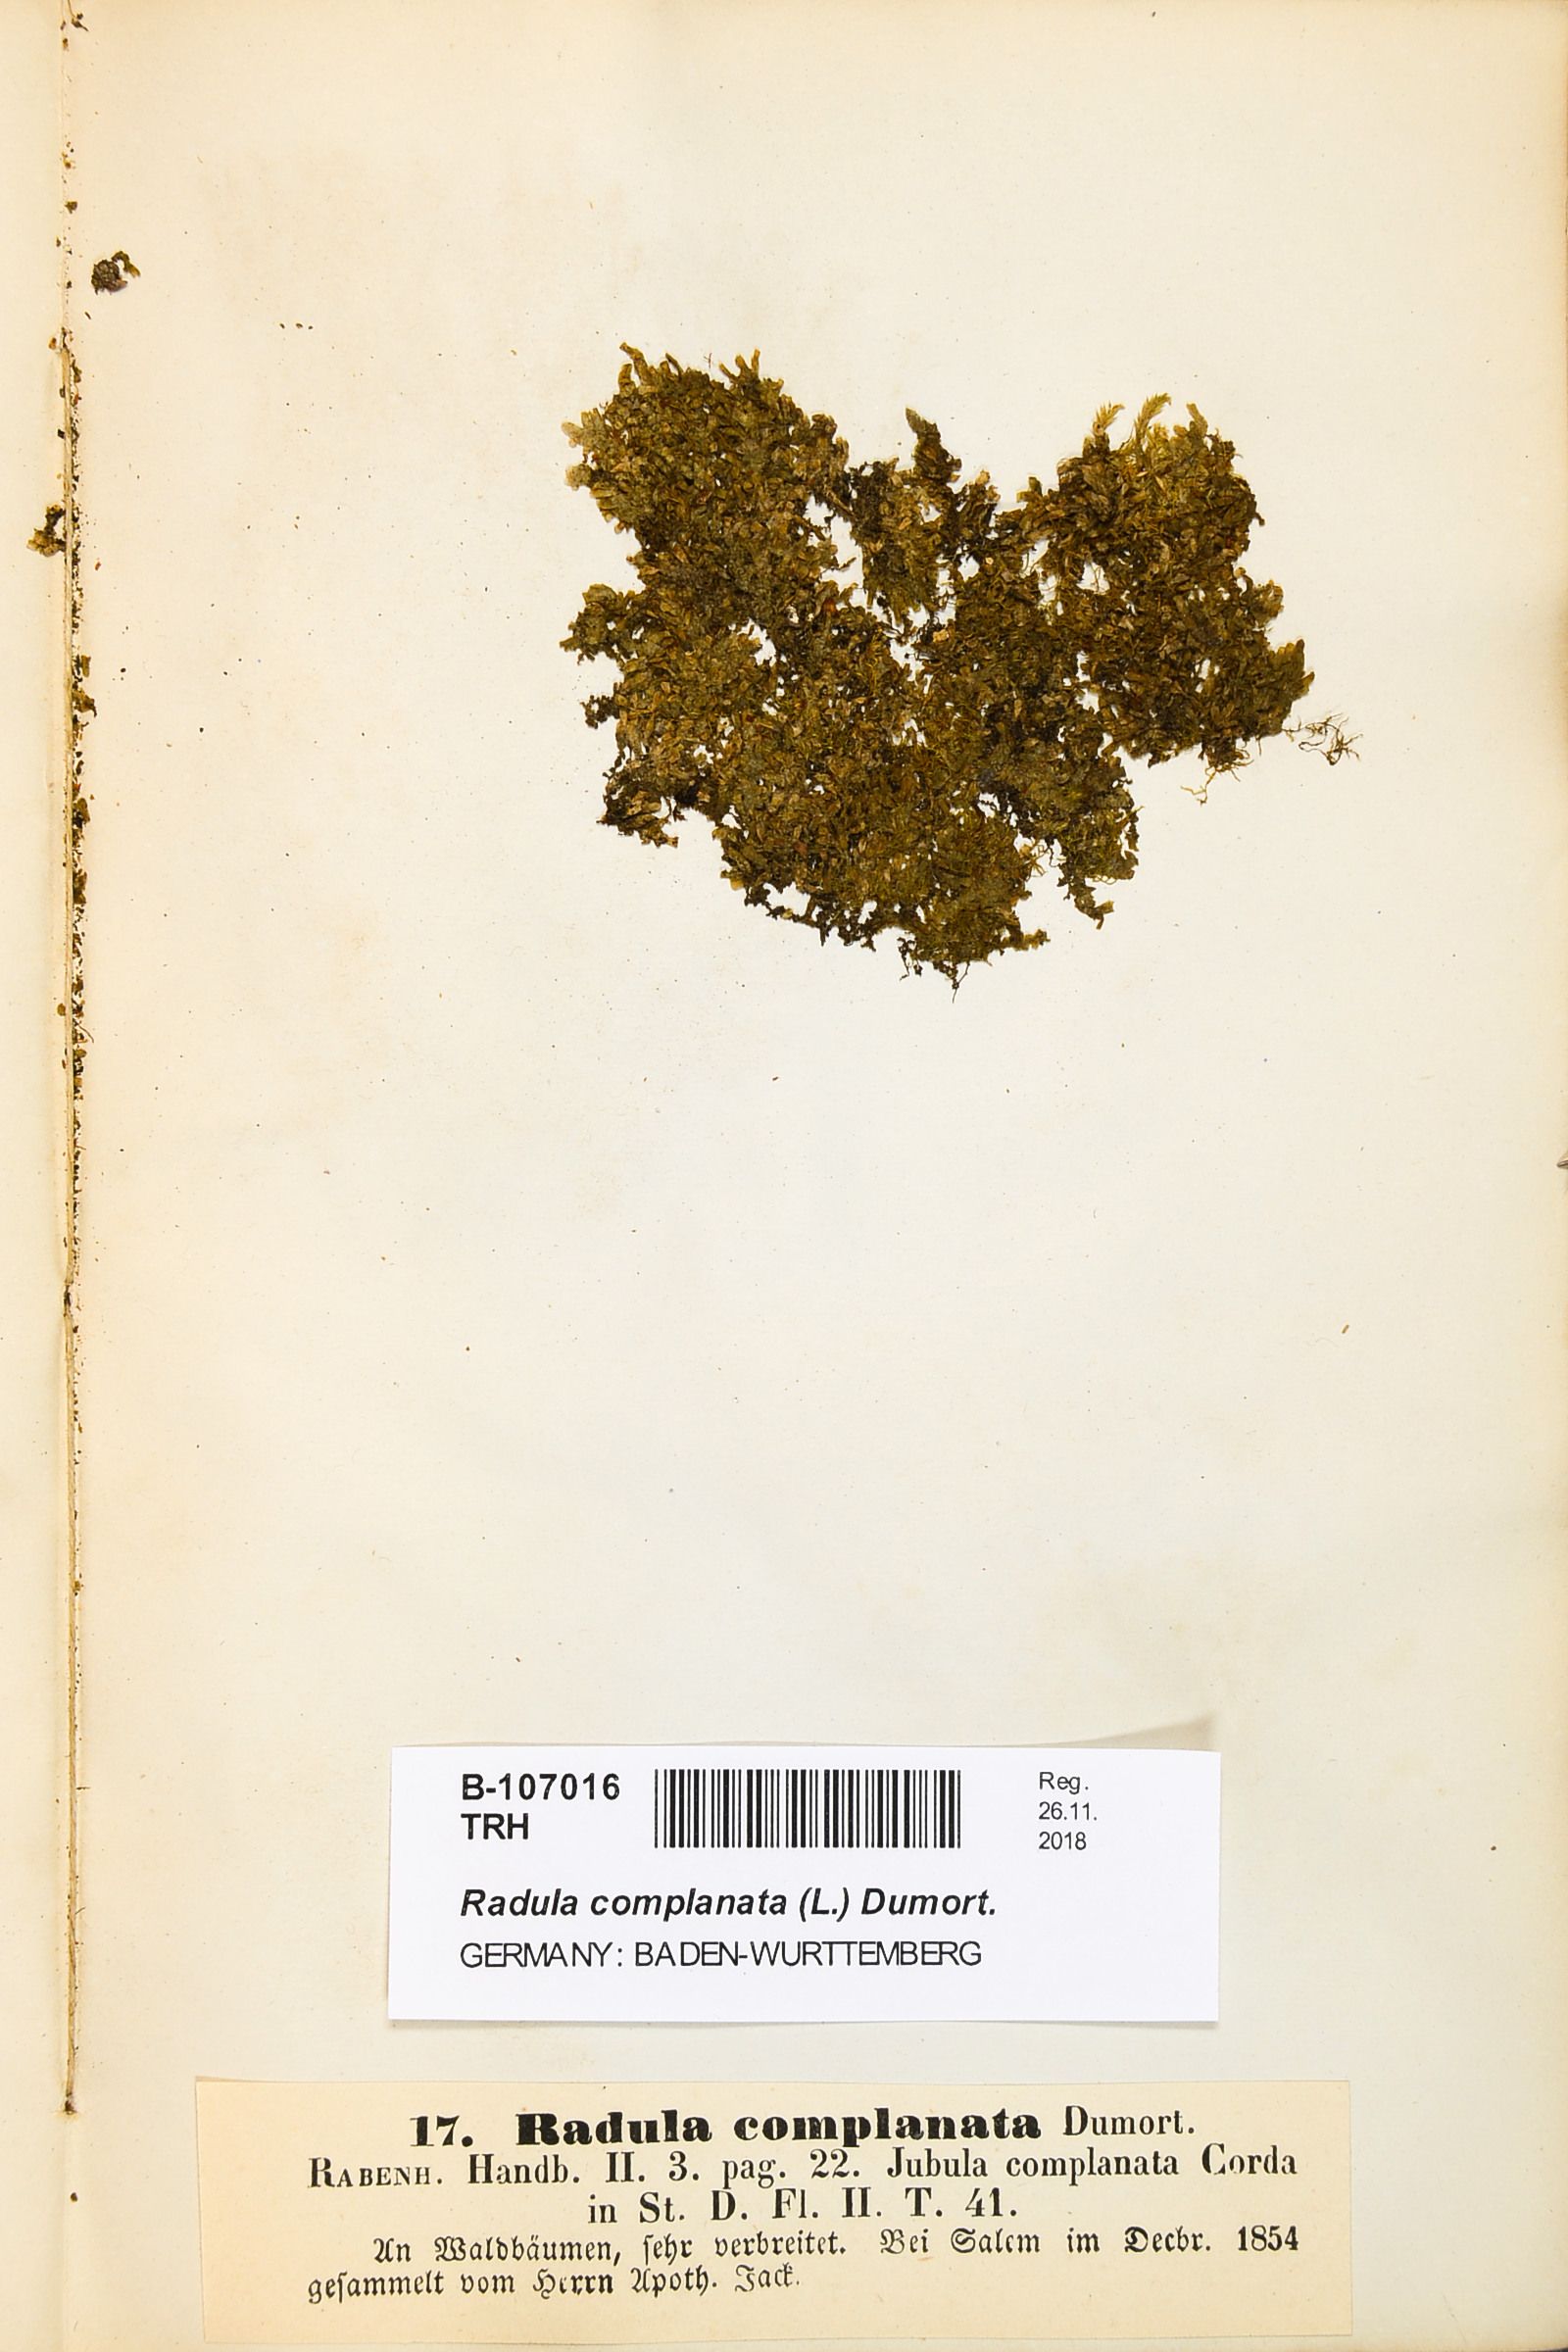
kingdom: Plantae
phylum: Marchantiophyta
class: Jungermanniopsida
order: Porellales
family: Radulaceae
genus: Radula
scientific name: Radula complanata
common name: Flat-leaved scalewort
